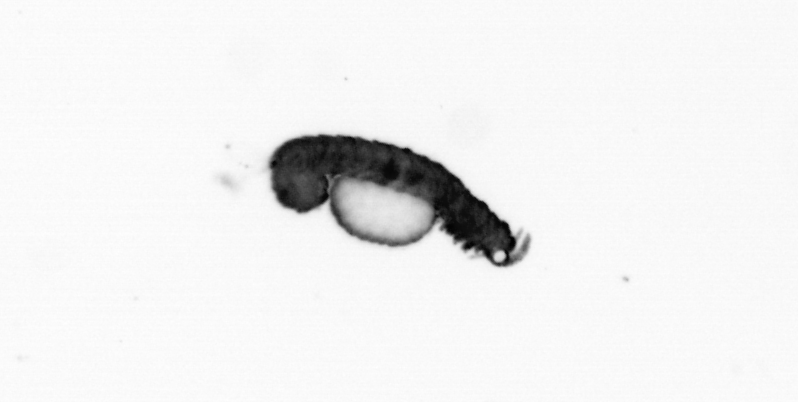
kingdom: Animalia
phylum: Annelida
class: Polychaeta
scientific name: Polychaeta
